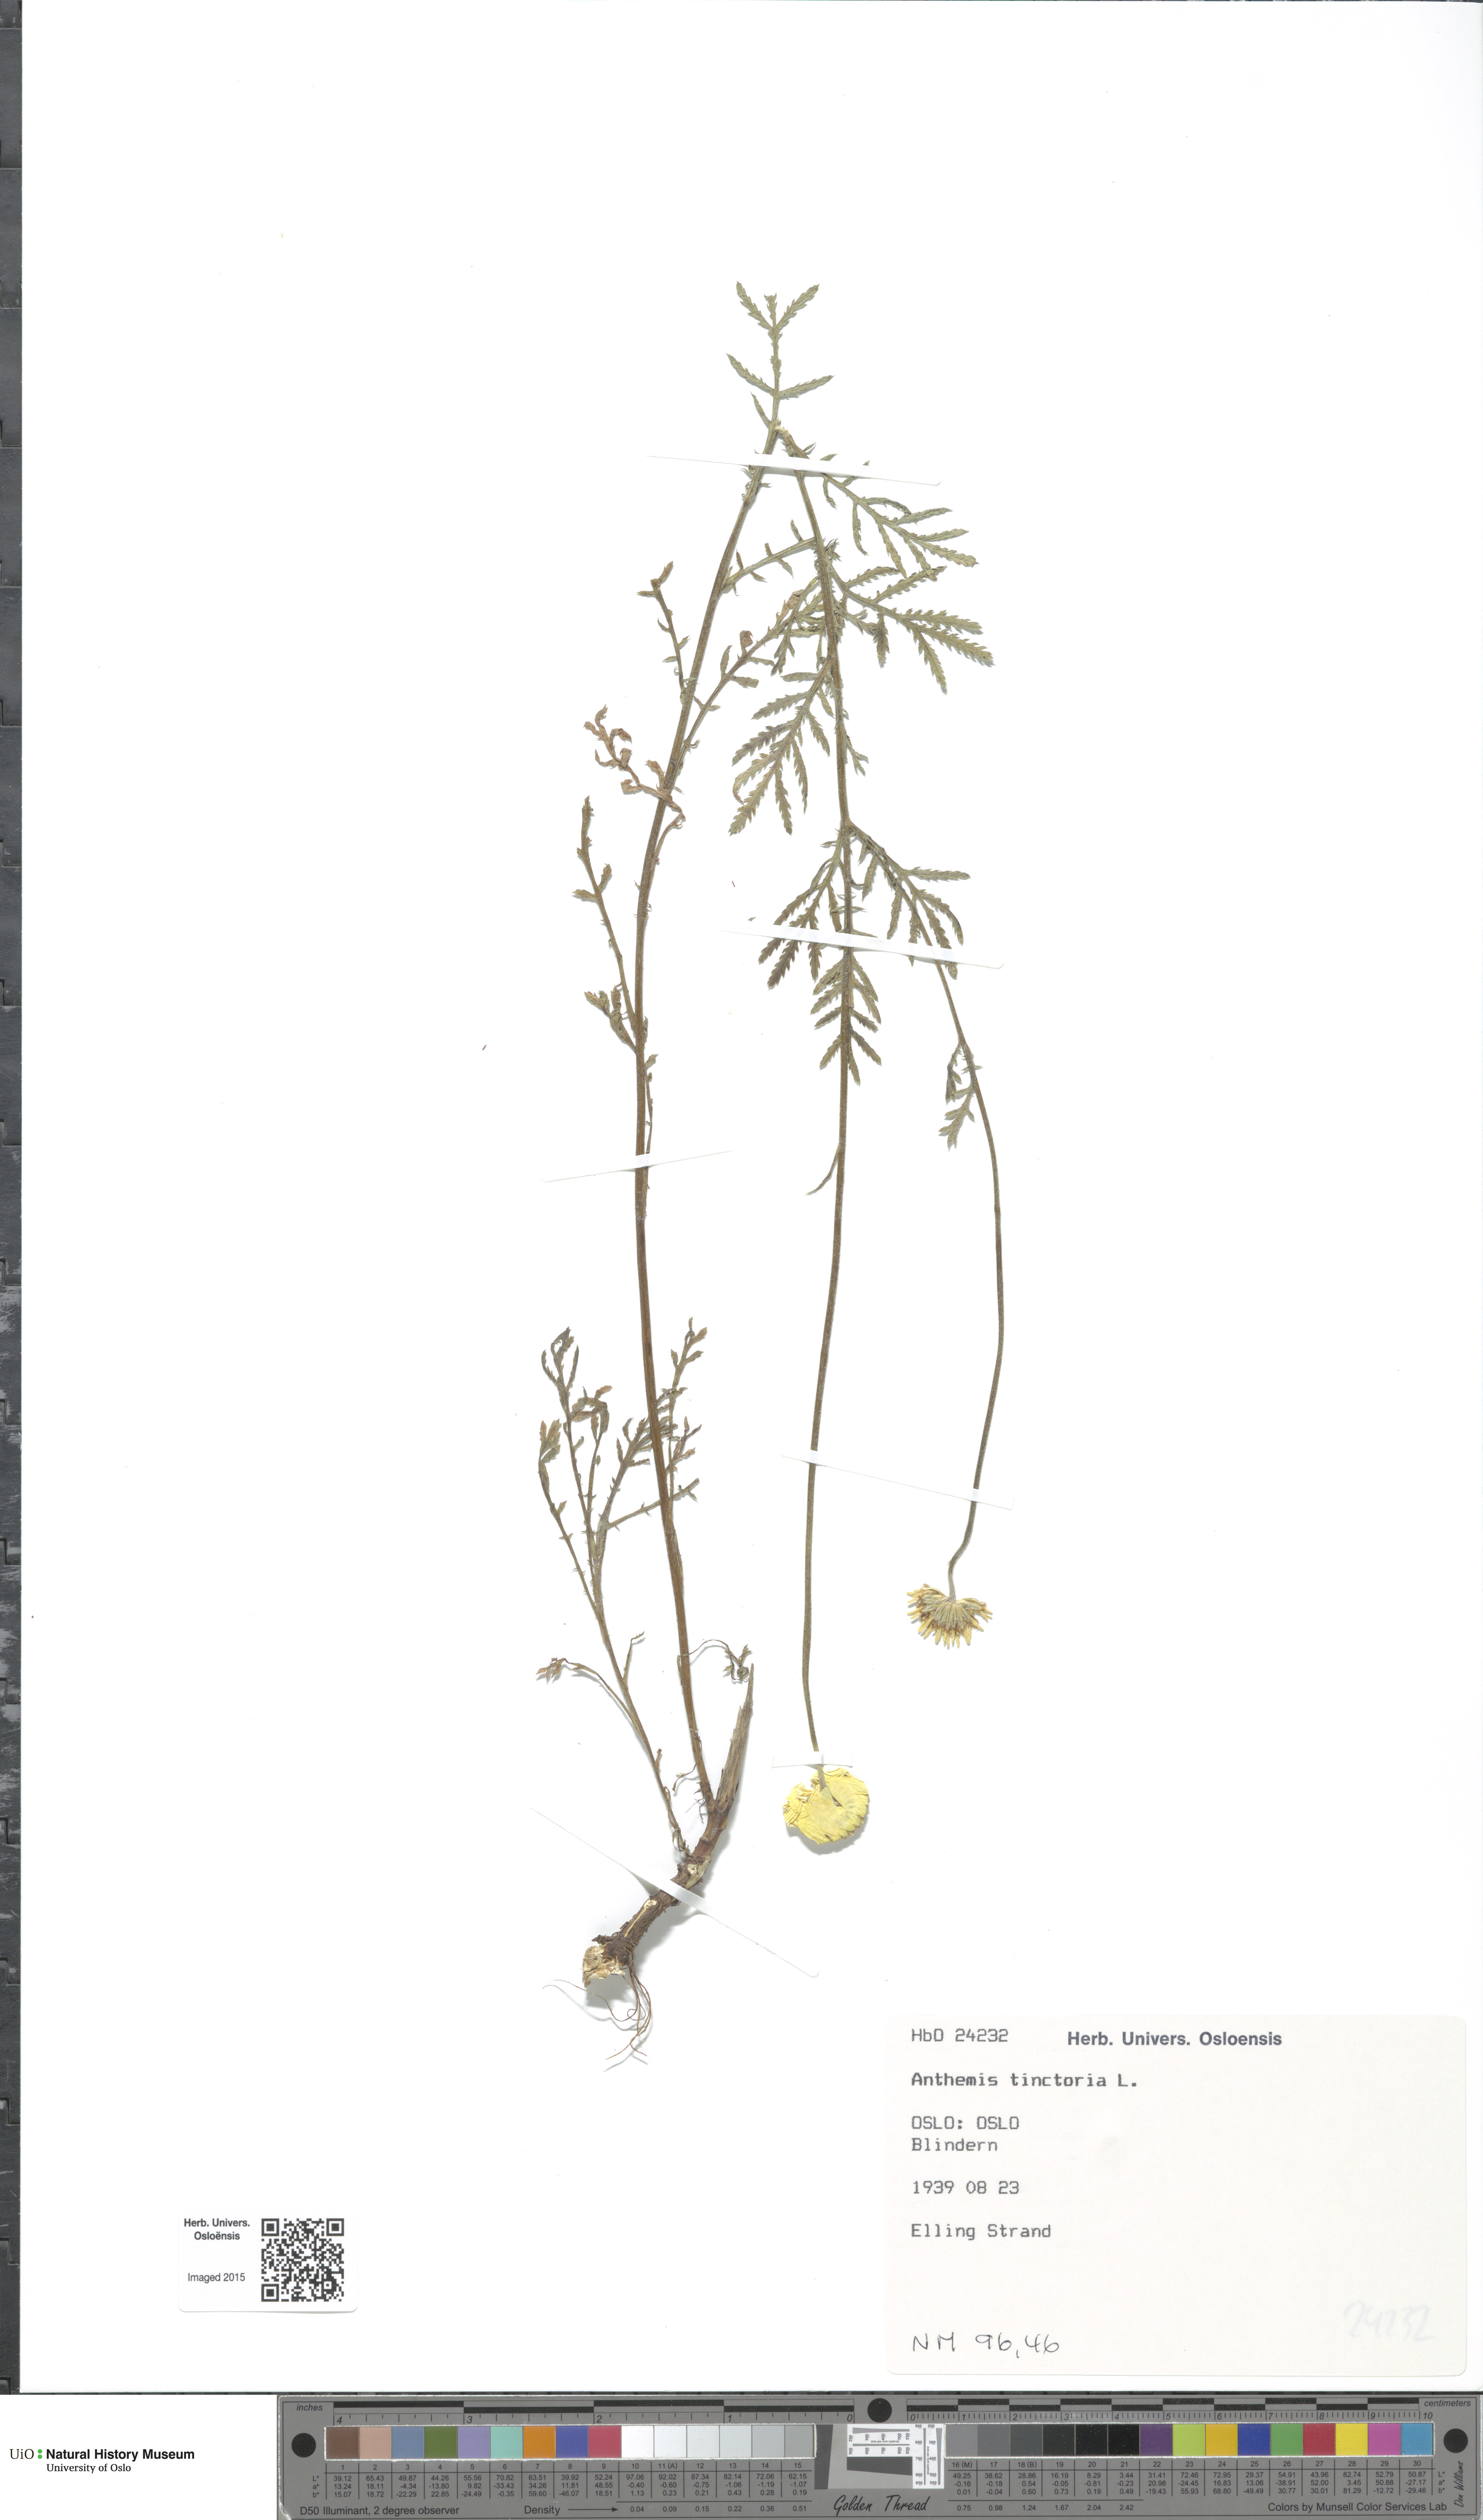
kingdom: Plantae
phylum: Tracheophyta
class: Magnoliopsida
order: Asterales
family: Asteraceae
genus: Cota
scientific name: Cota tinctoria
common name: Golden chamomile
